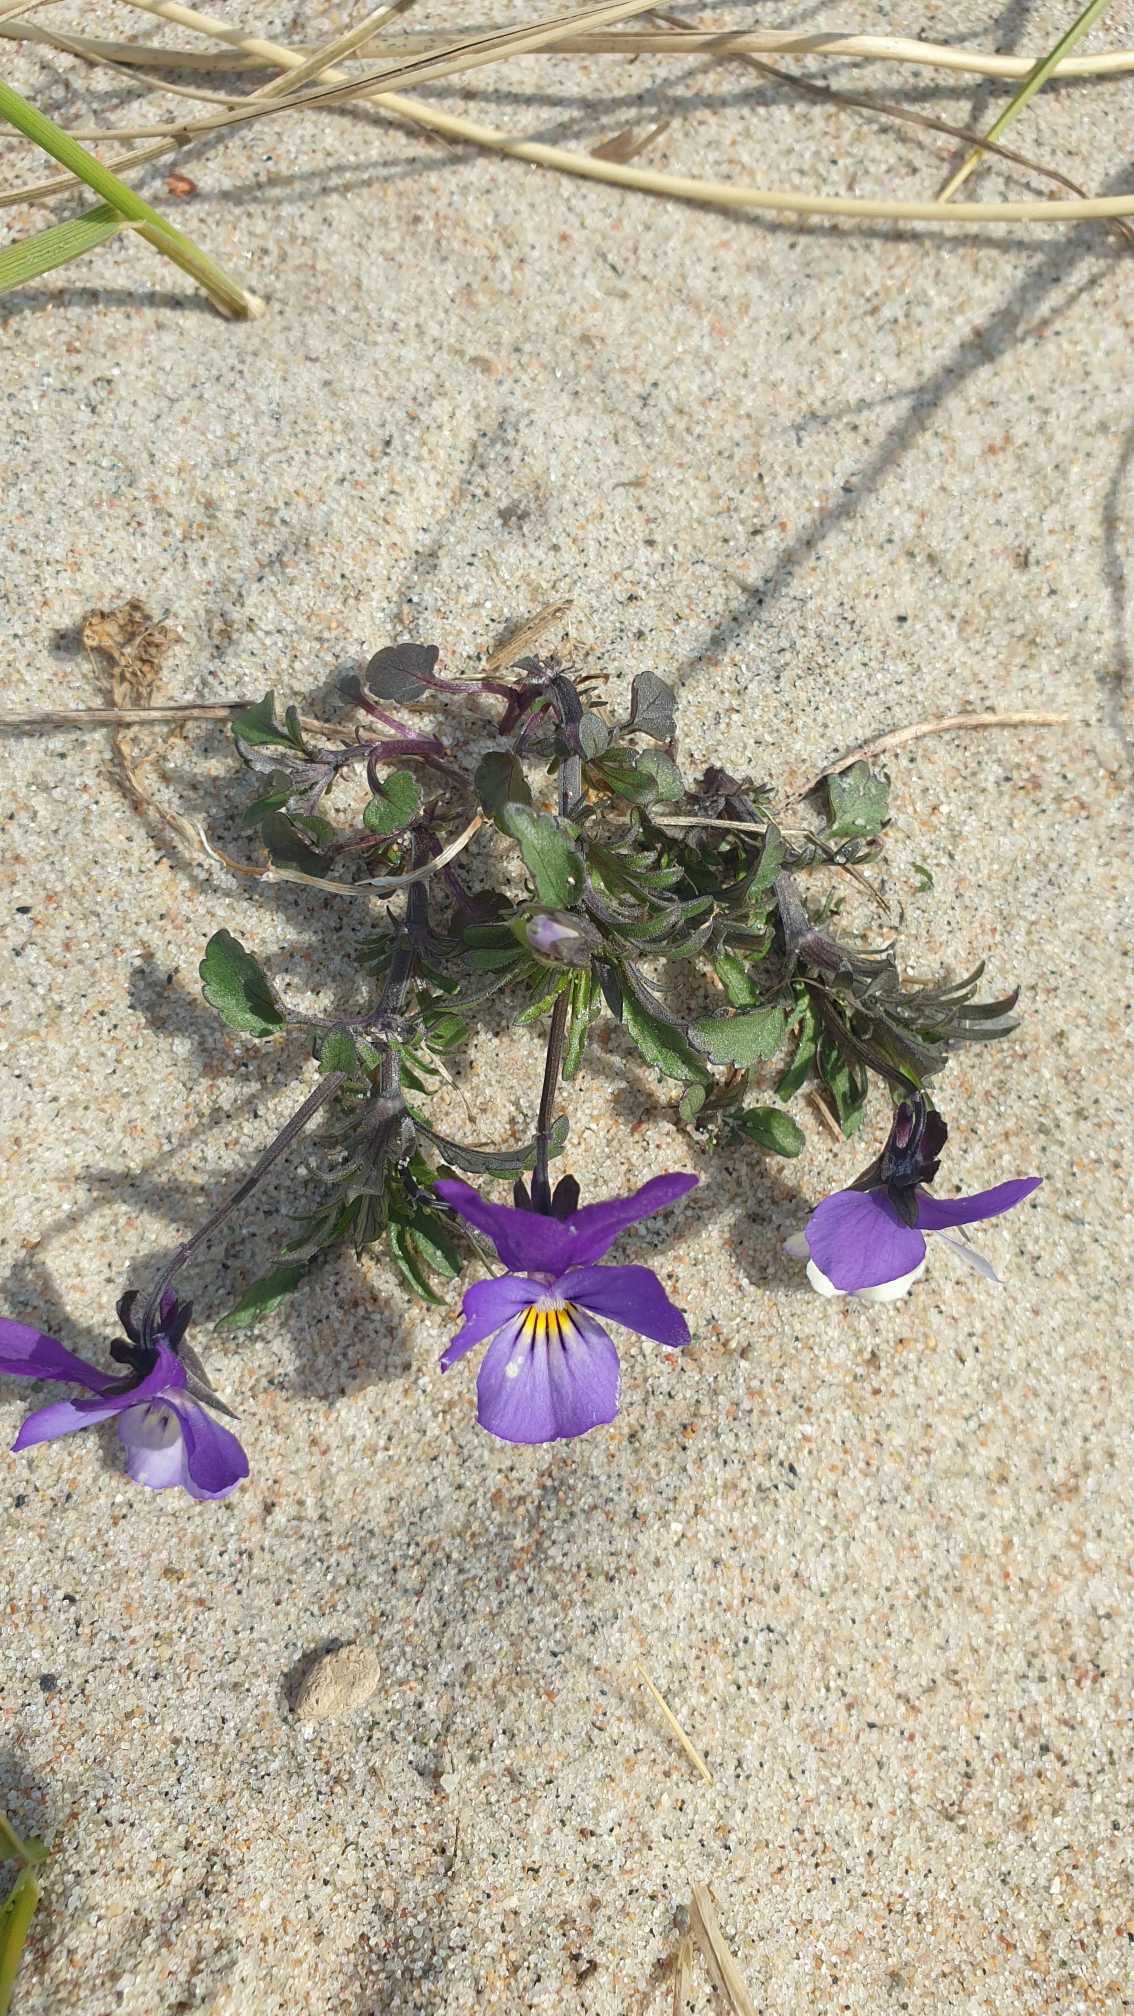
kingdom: Plantae
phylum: Tracheophyta
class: Magnoliopsida
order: Malpighiales
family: Violaceae
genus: Viola
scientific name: Viola tricolor
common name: Klit-stedmoderblomst
